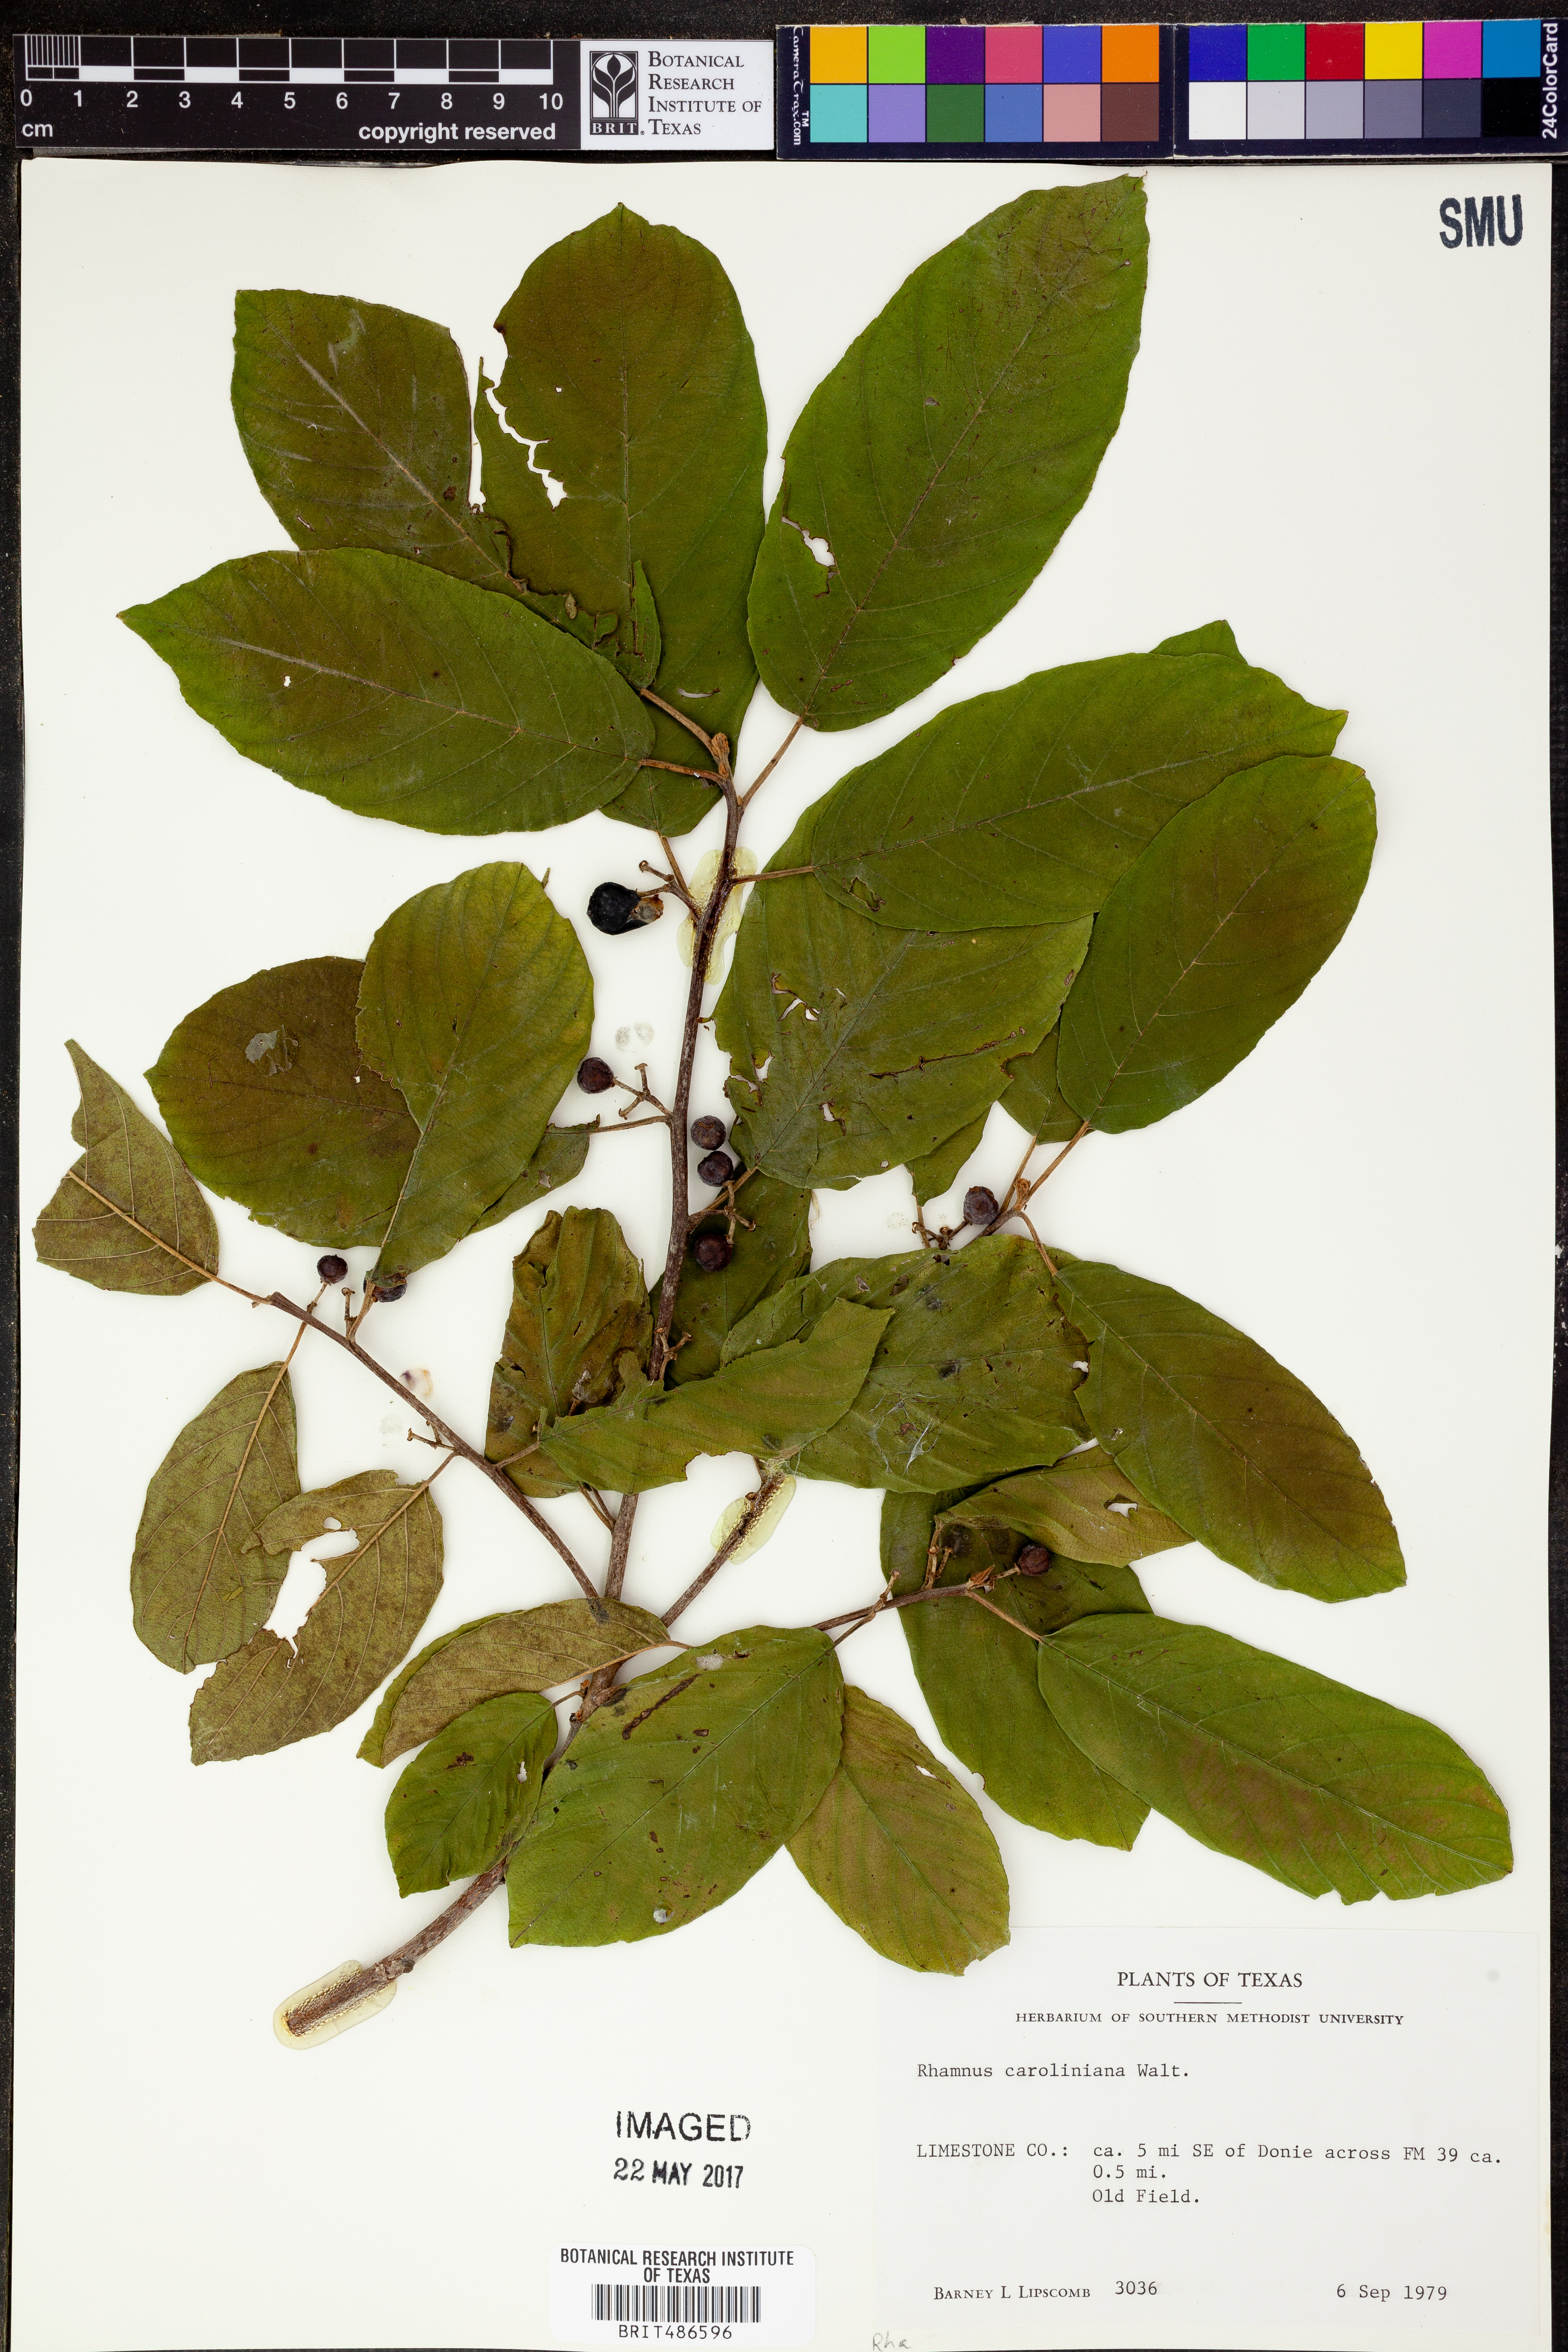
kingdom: Plantae
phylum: Tracheophyta
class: Magnoliopsida
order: Rosales
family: Rhamnaceae
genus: Frangula
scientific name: Frangula caroliniana
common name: Carolina buckthorn
